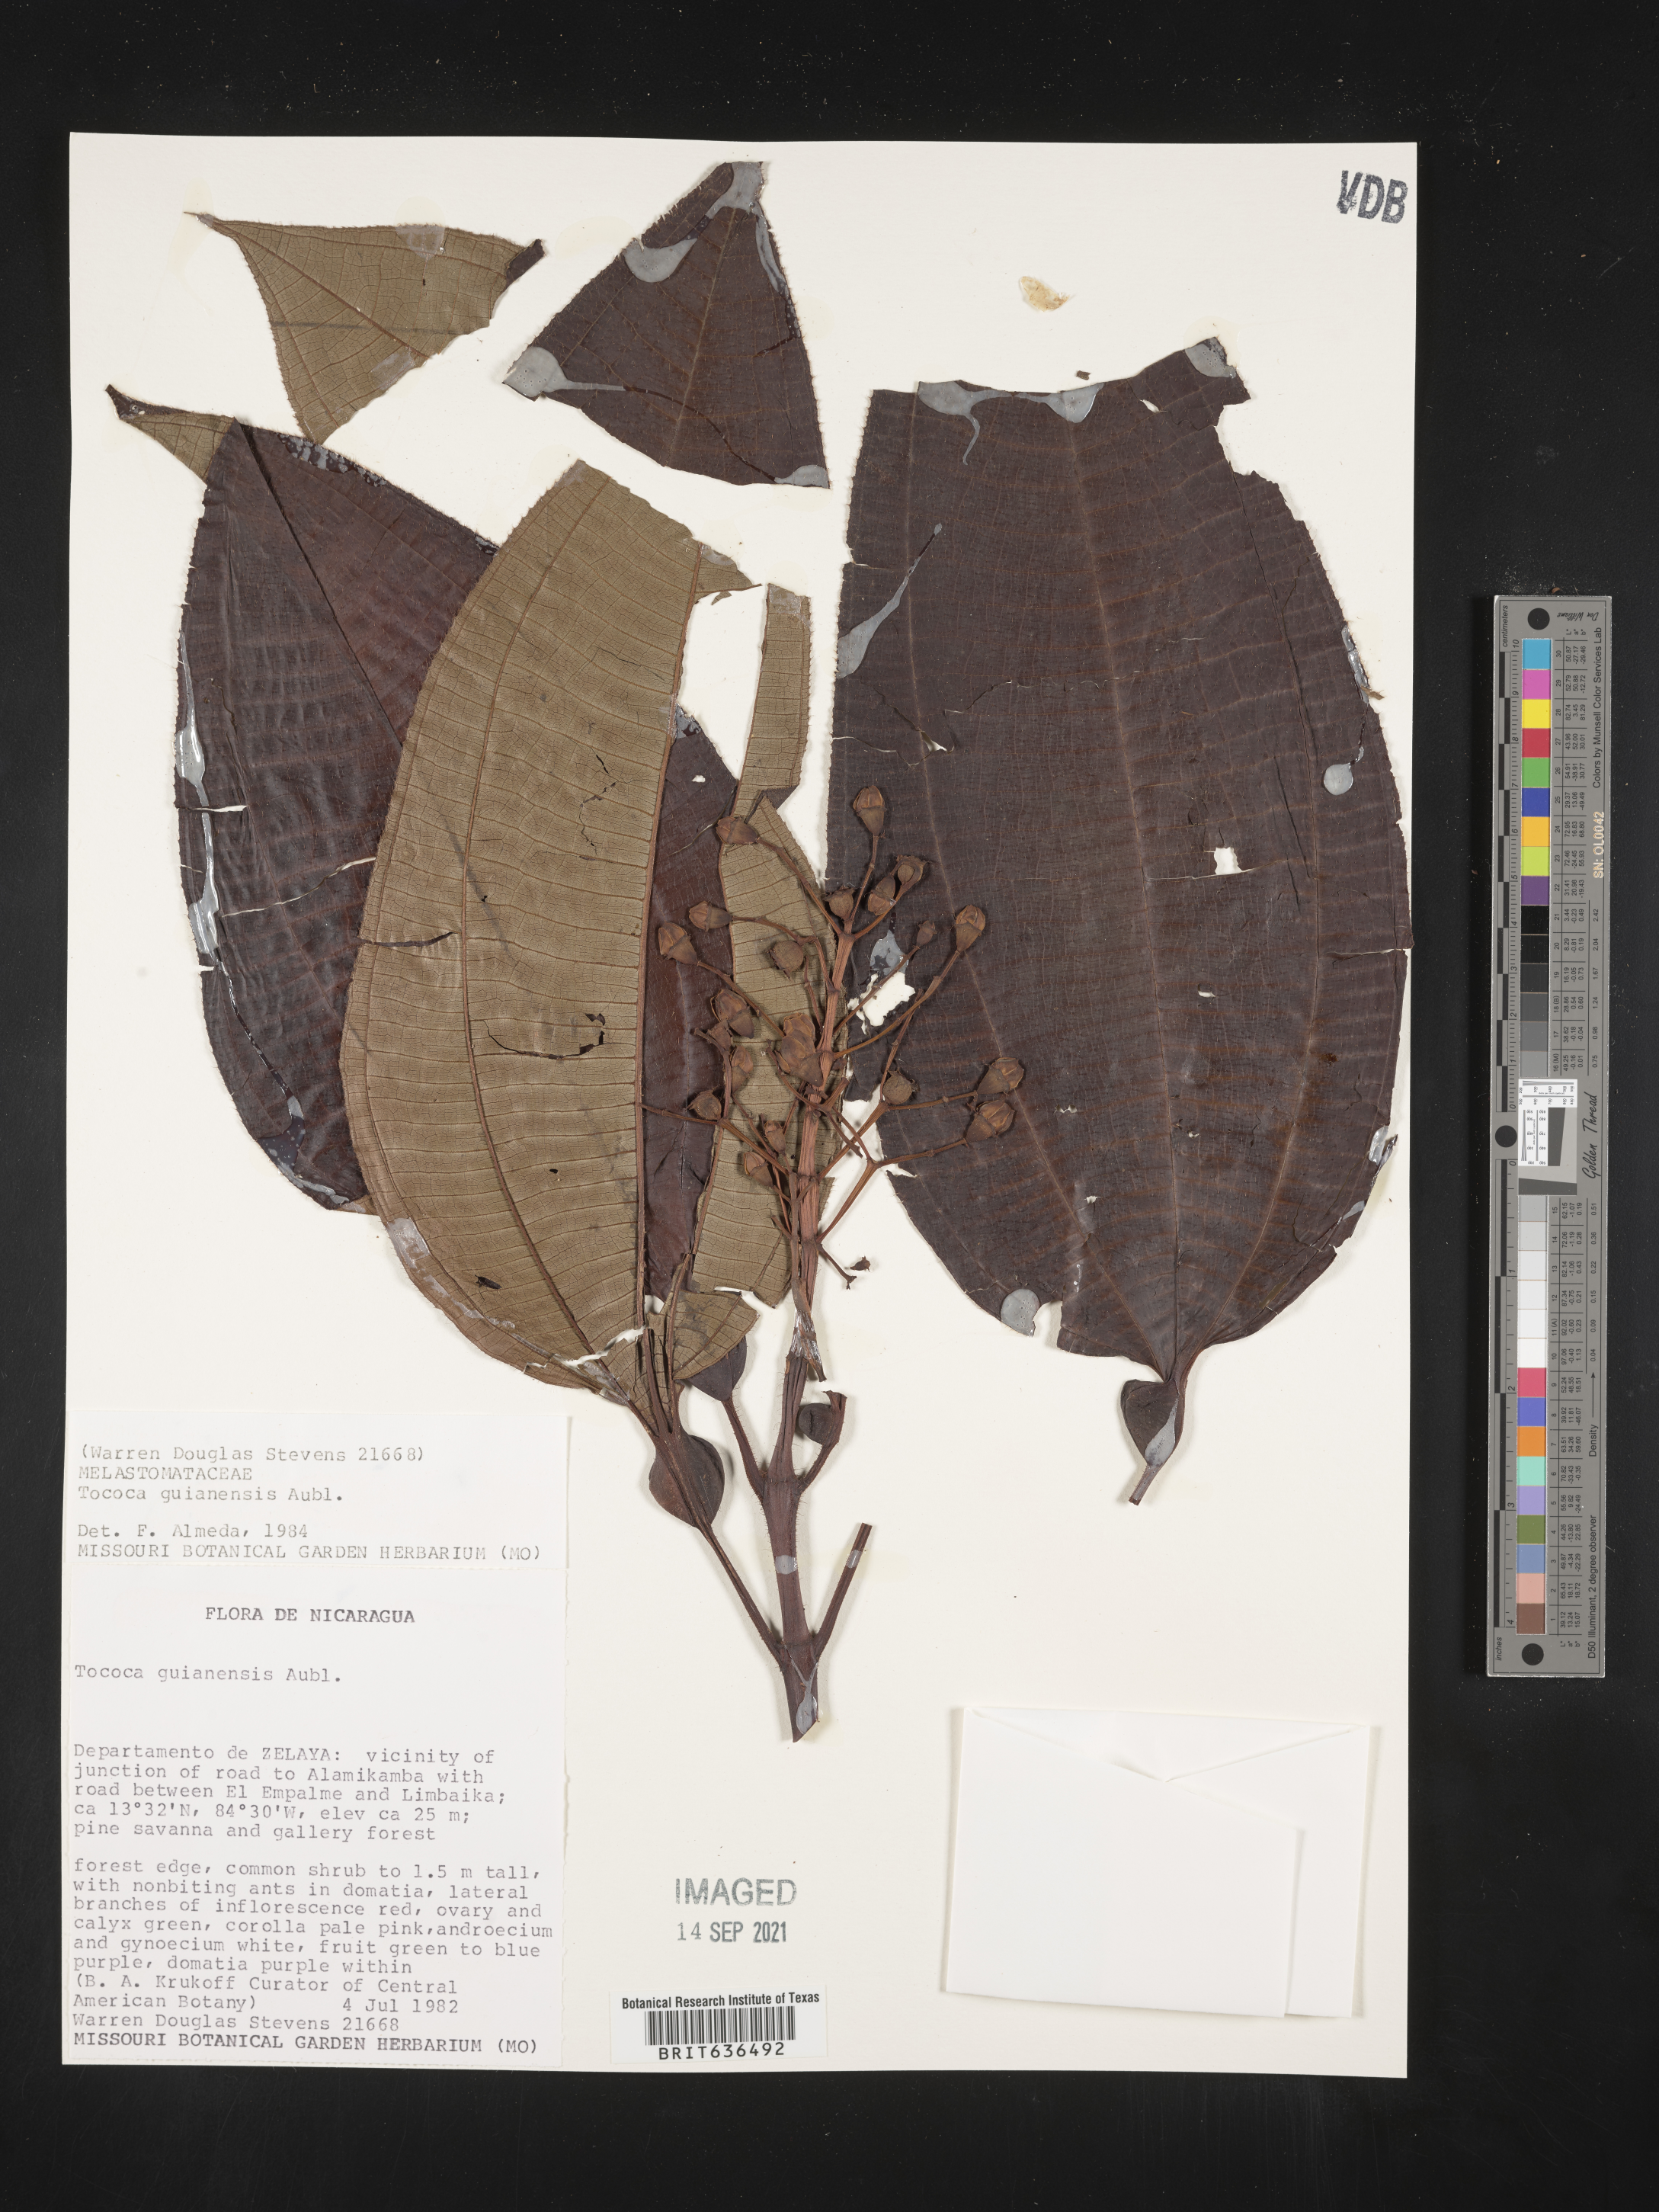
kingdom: Plantae
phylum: Tracheophyta
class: Magnoliopsida
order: Myrtales
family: Melastomataceae
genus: Tibouchina
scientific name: Tibouchina
